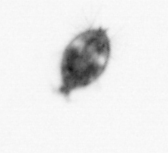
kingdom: Animalia
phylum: Arthropoda
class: Maxillopoda
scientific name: Maxillopoda
